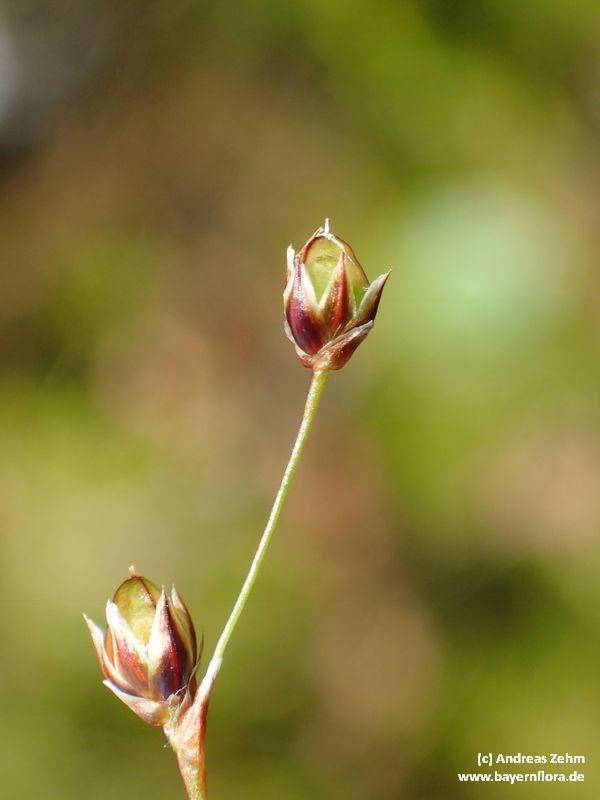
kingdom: Plantae
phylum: Tracheophyta
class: Liliopsida
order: Poales
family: Juncaceae
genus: Luzula
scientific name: Luzula luzulina
